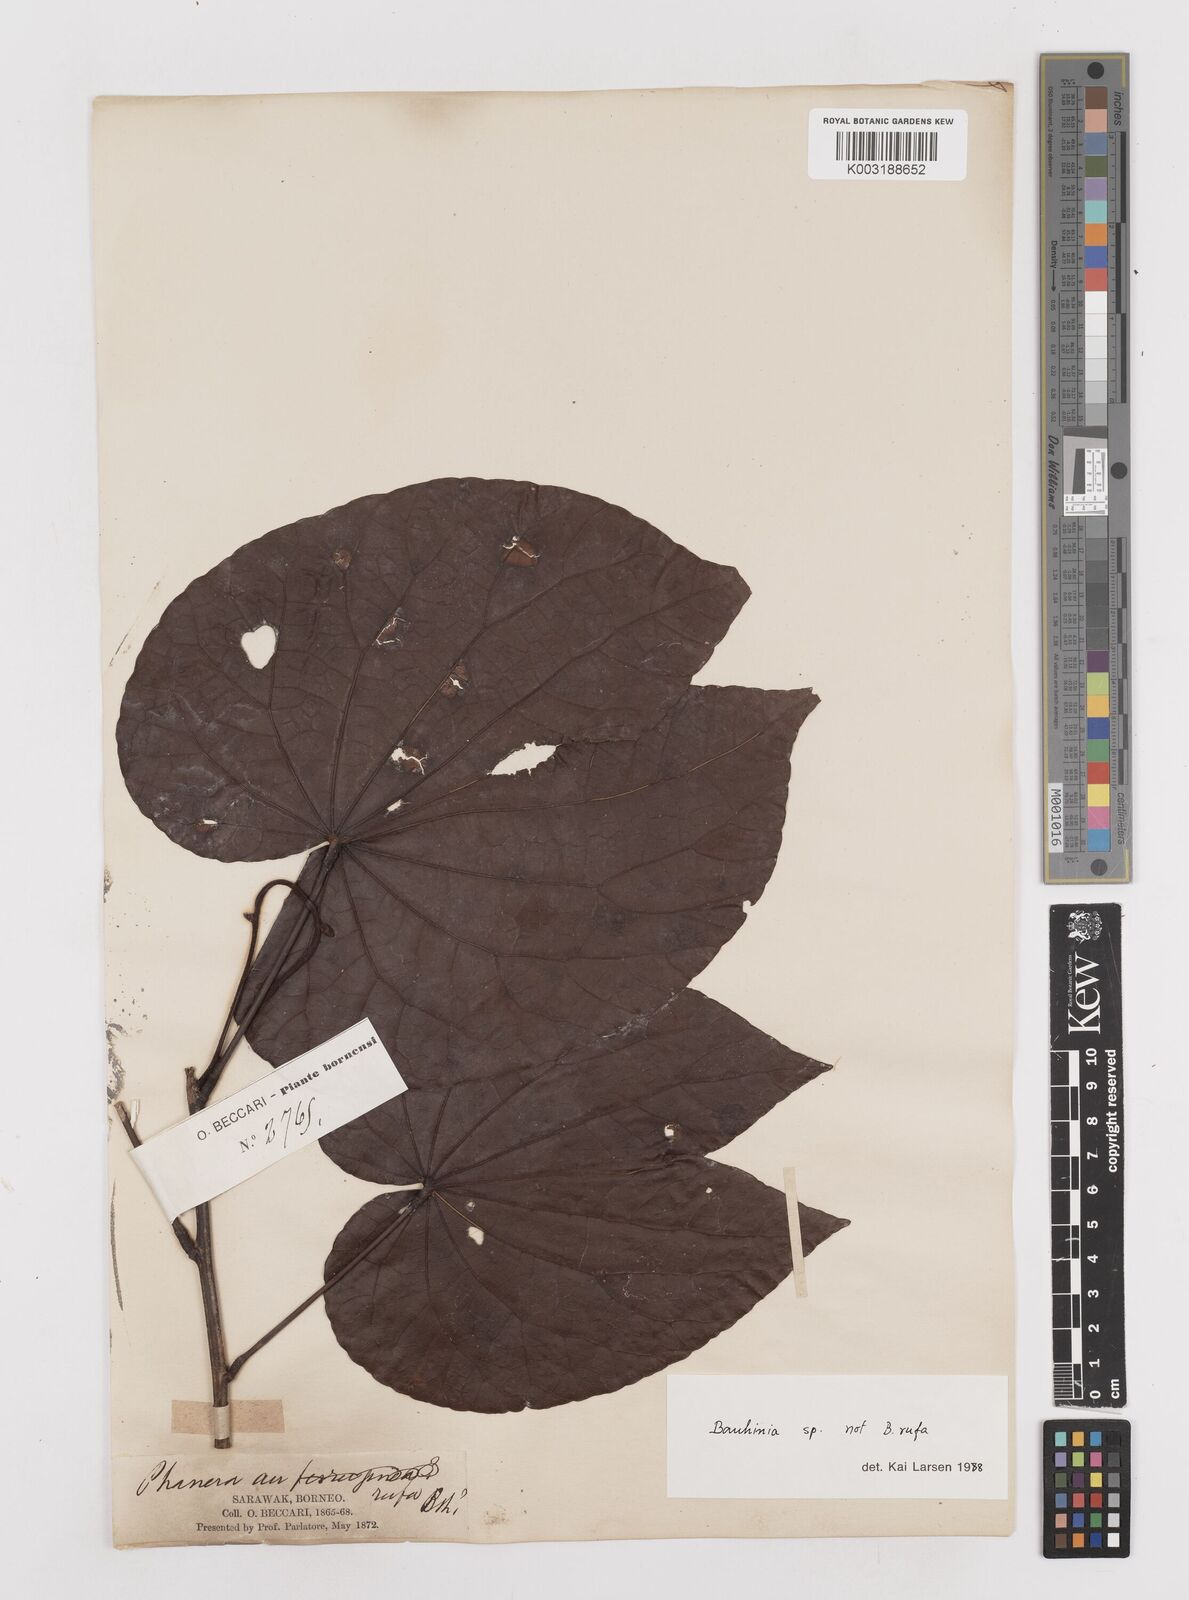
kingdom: Plantae
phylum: Tracheophyta
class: Magnoliopsida
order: Fabales
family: Fabaceae
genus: Bauhinia
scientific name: Bauhinia
